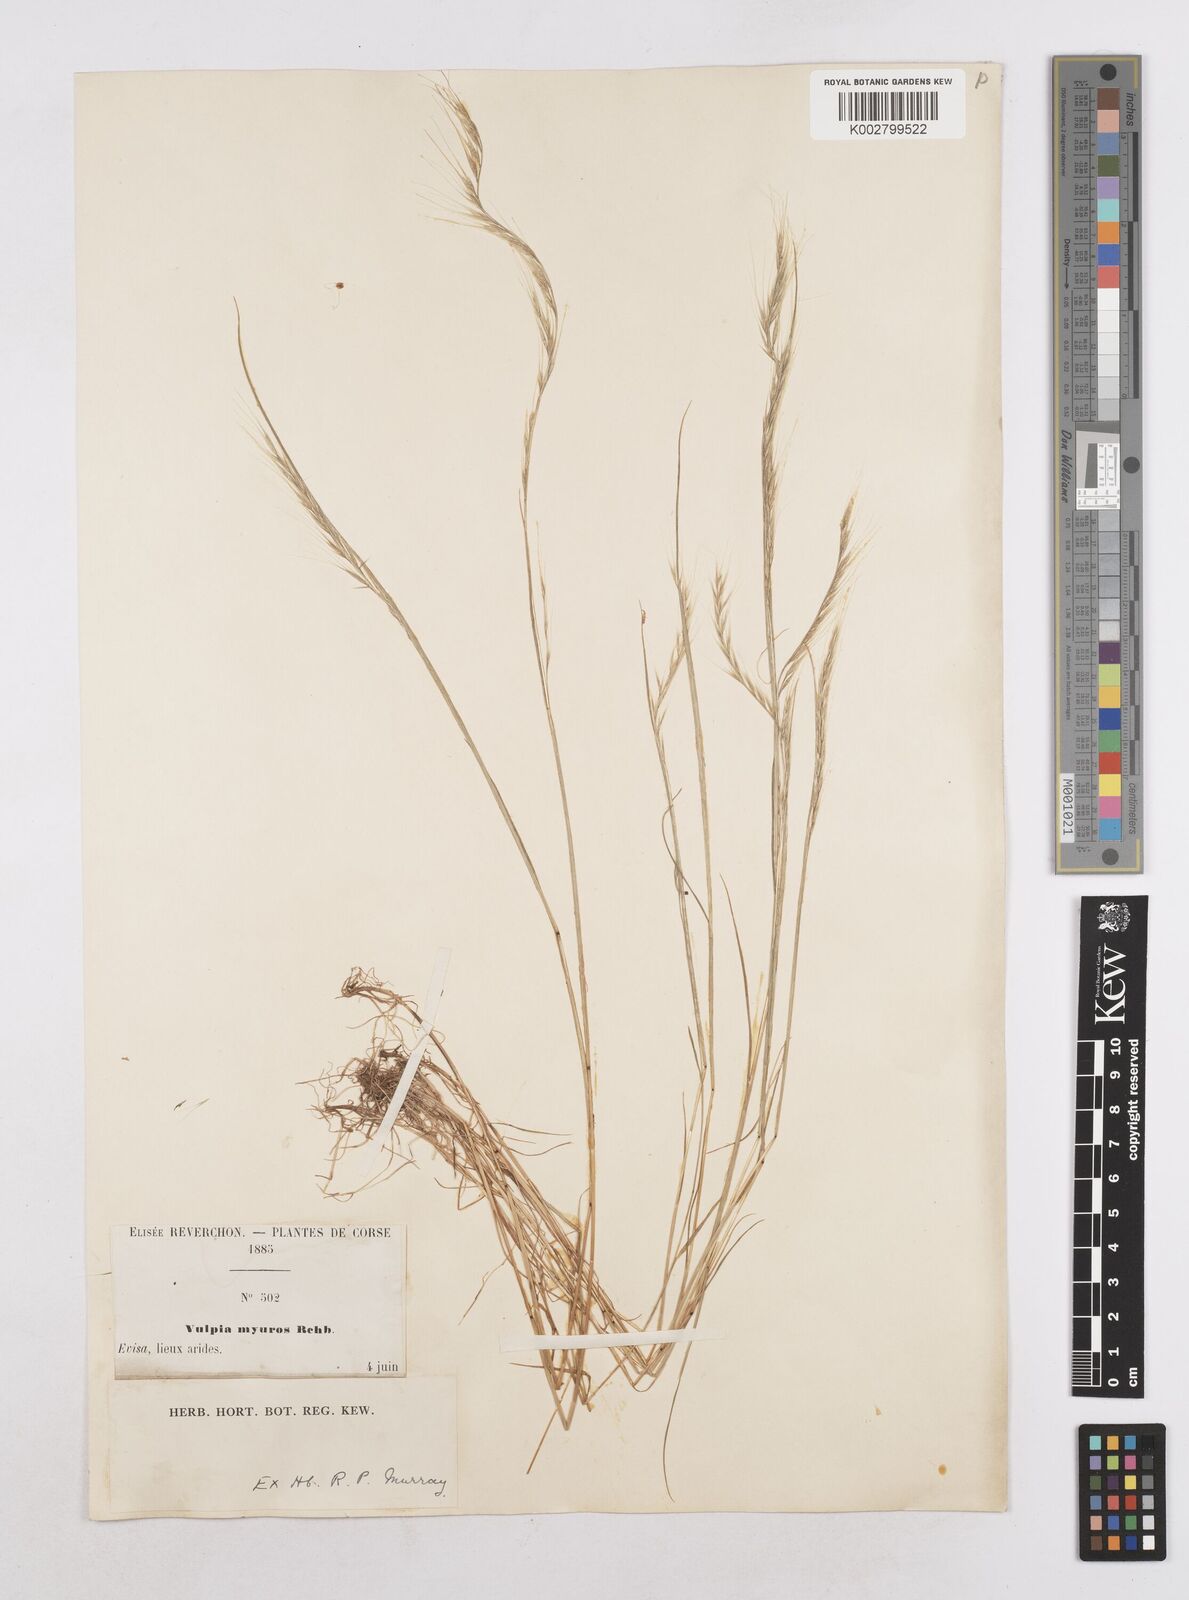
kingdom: Plantae
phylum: Tracheophyta
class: Liliopsida
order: Poales
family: Poaceae
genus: Festuca
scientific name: Festuca myuros
